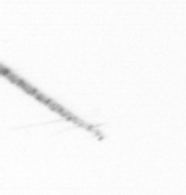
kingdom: Animalia
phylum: Arthropoda
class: Copepoda
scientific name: Copepoda
